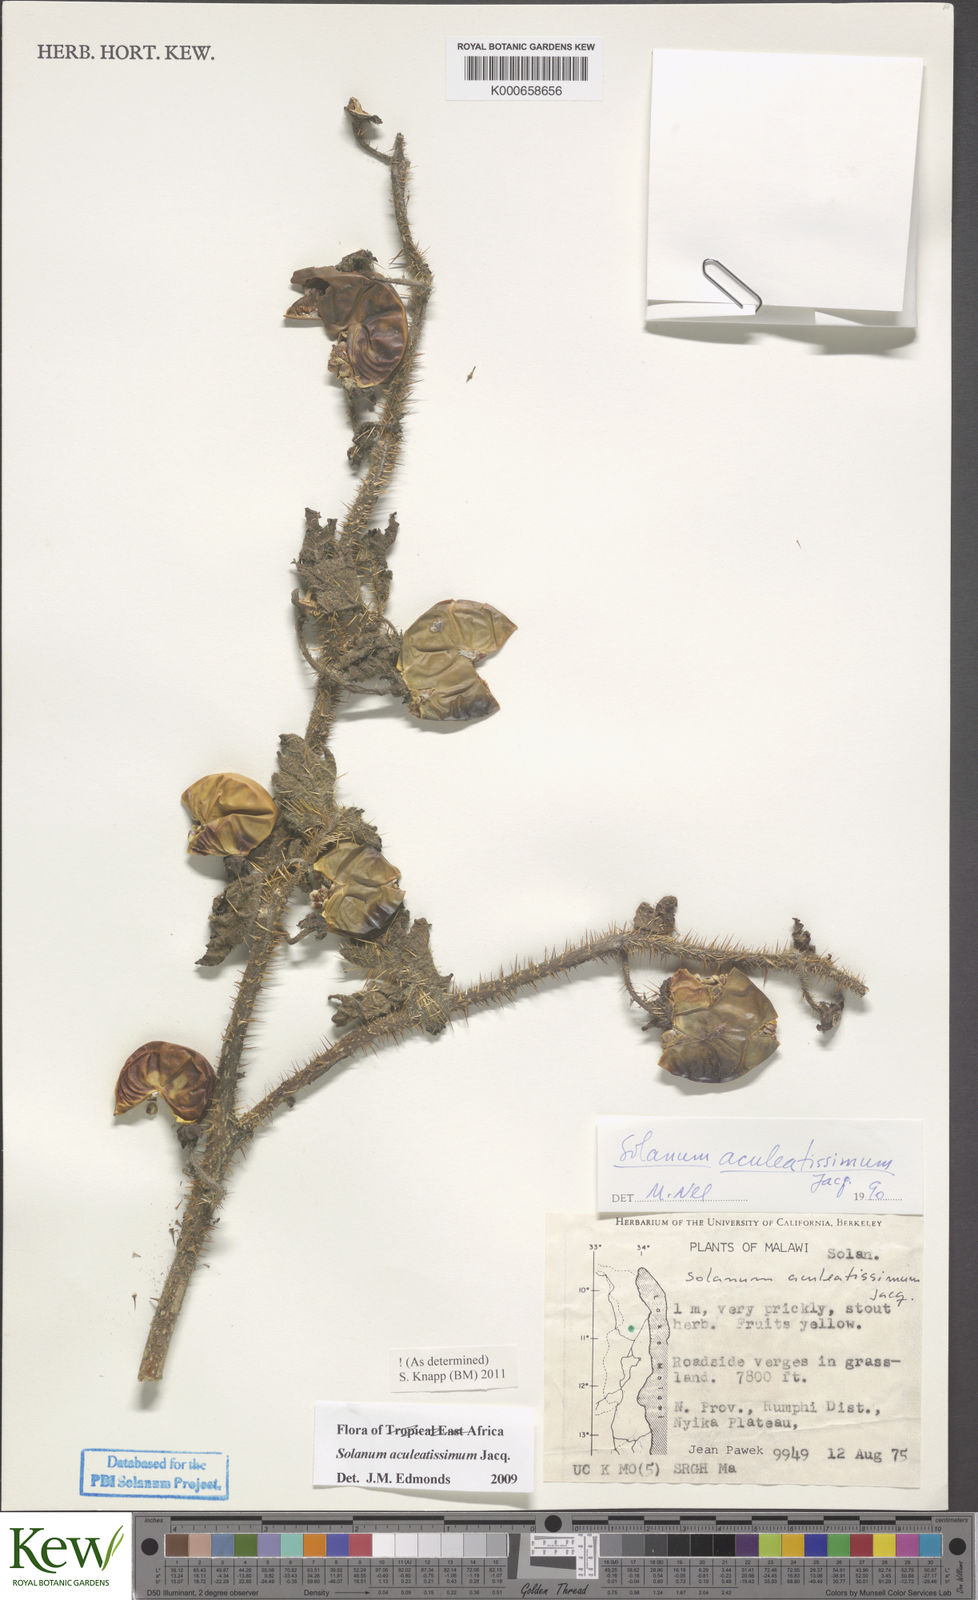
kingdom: Plantae
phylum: Tracheophyta
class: Magnoliopsida
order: Solanales
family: Solanaceae
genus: Solanum
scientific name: Solanum aculeatissimum
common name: Dutch eggplant
